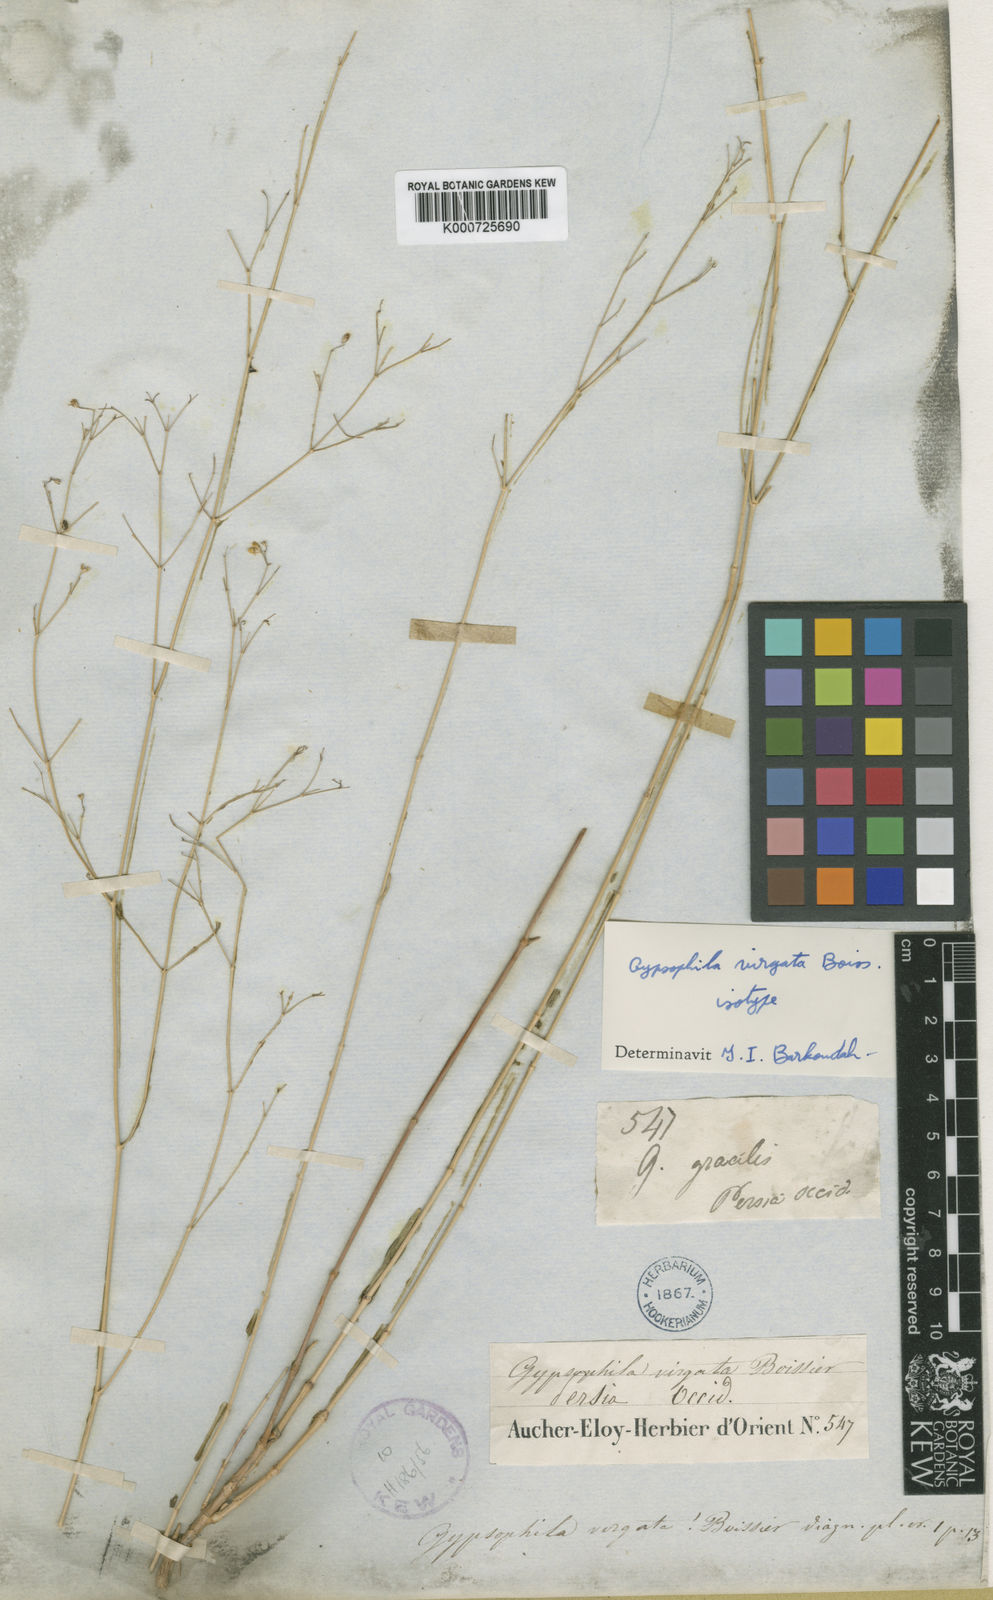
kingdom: Plantae
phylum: Tracheophyta
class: Magnoliopsida
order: Caryophyllales
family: Caryophyllaceae
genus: Gypsophila
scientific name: Gypsophila virgata
